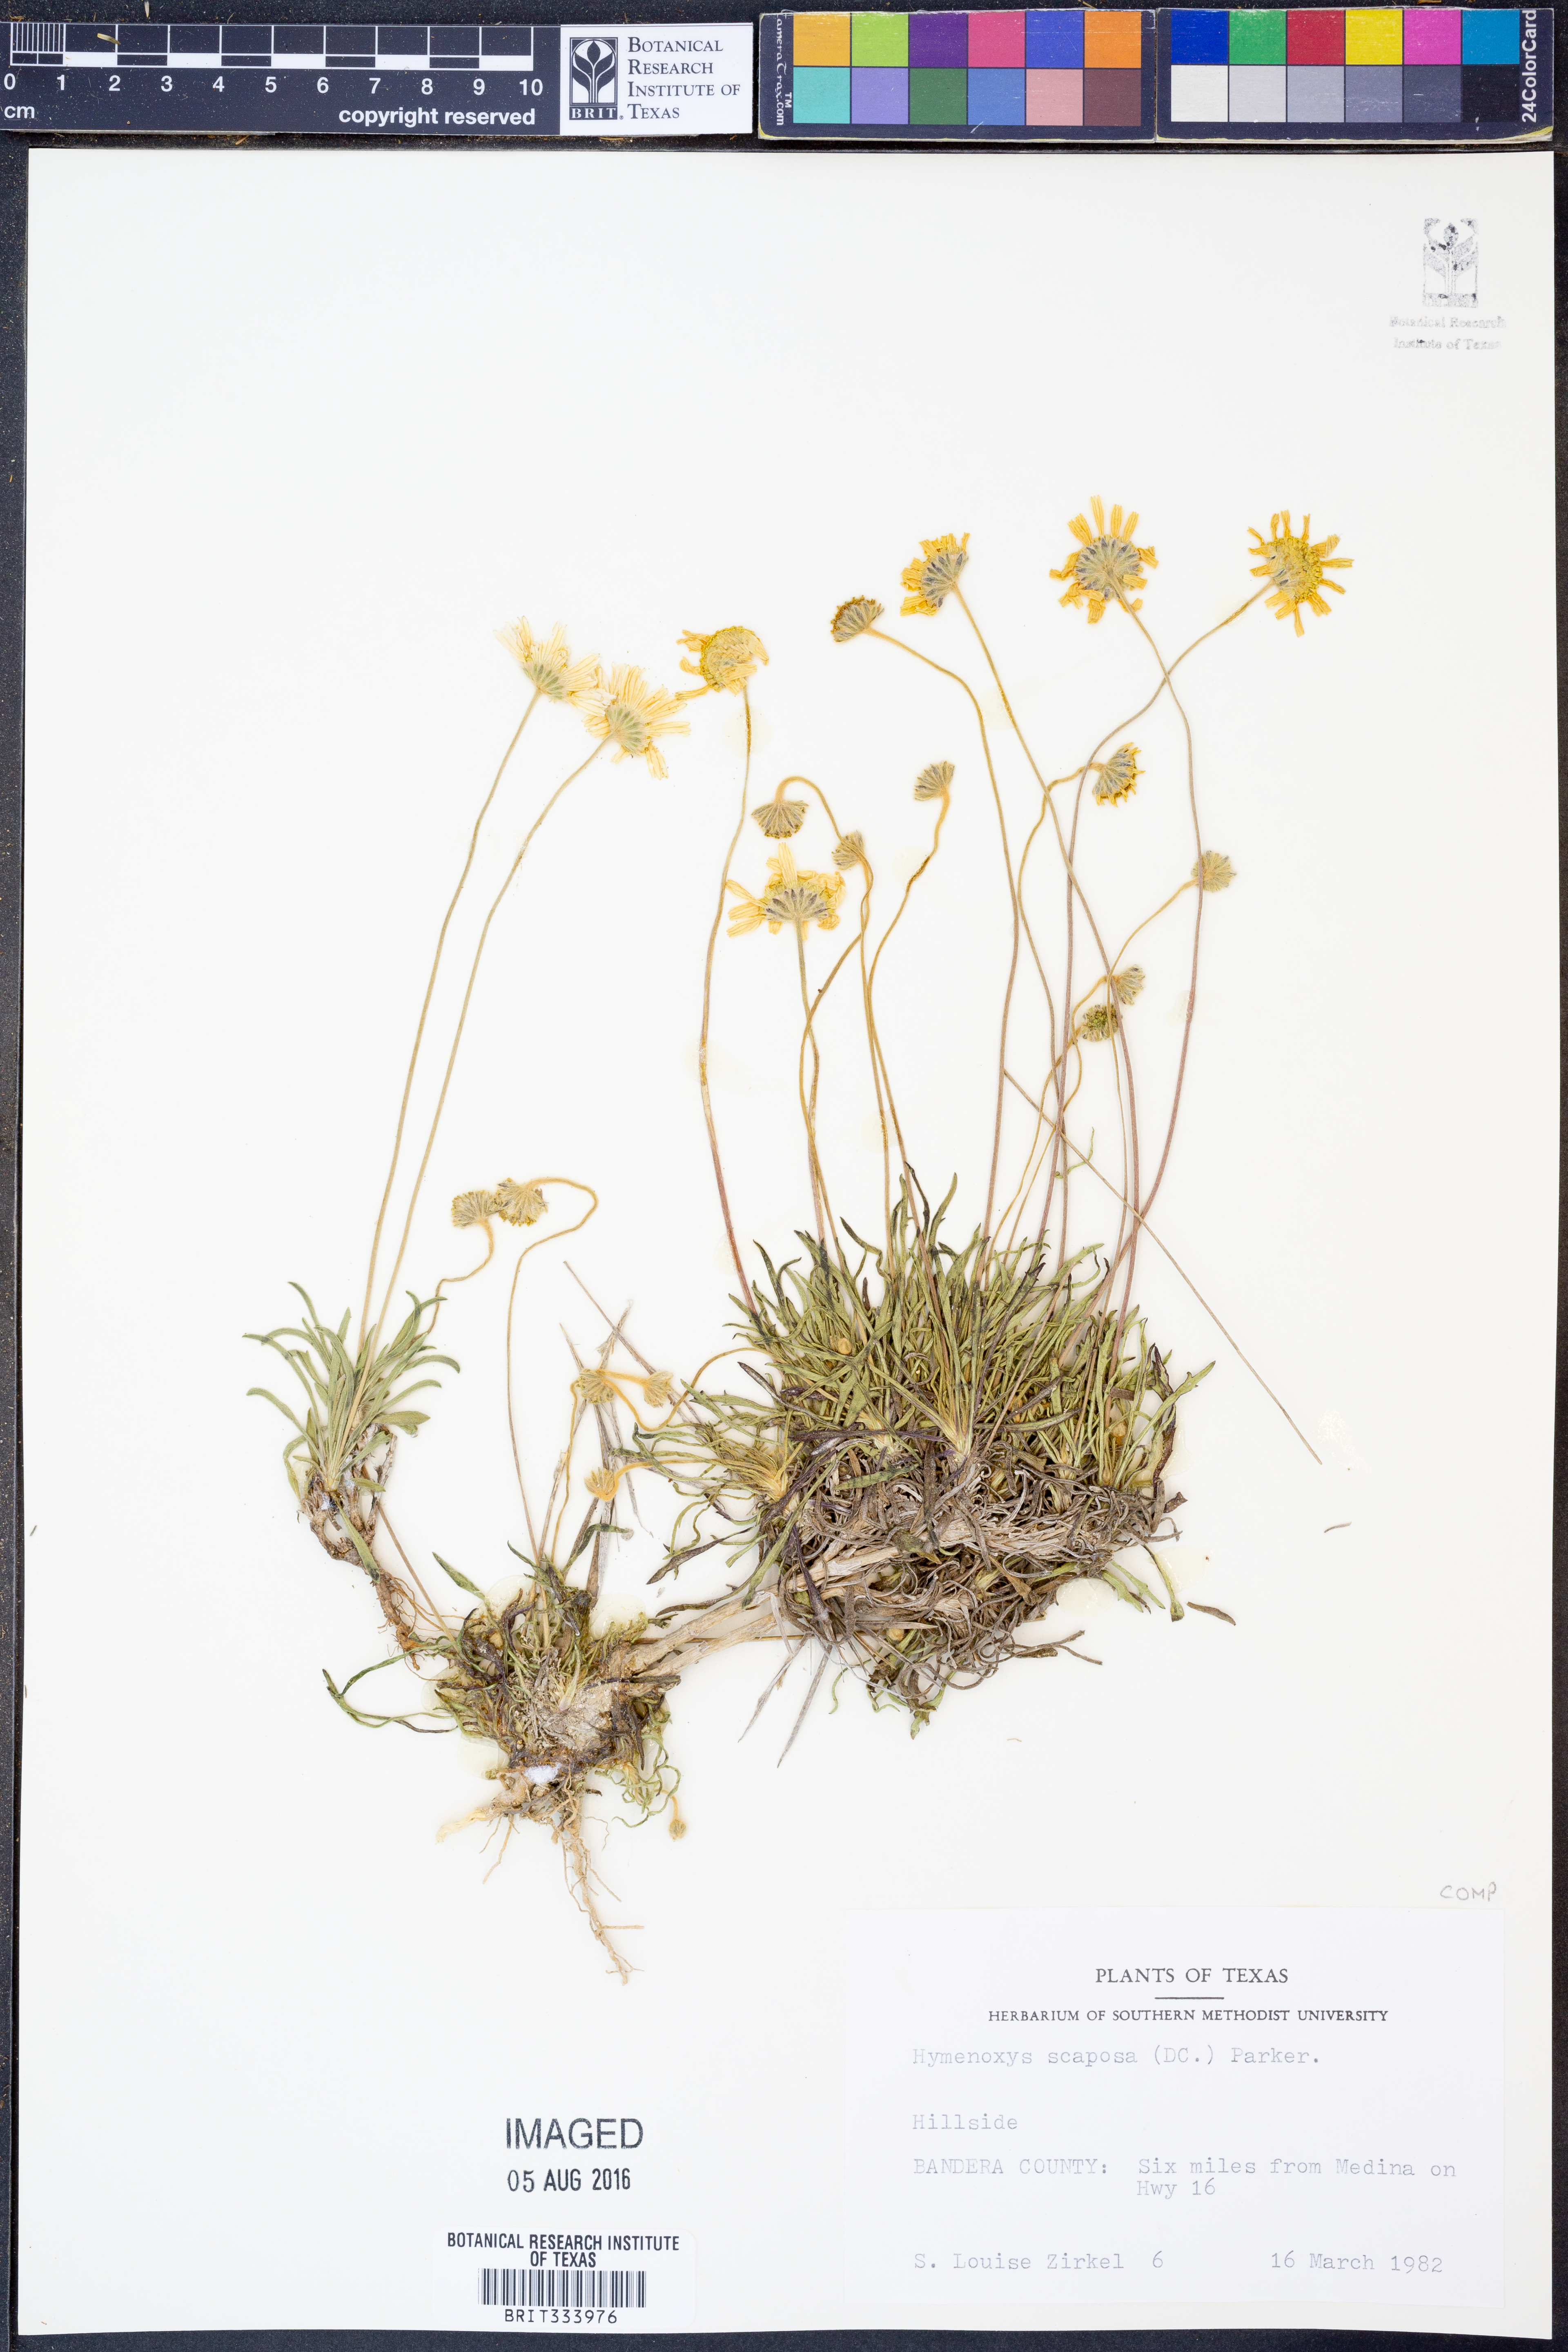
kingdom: Plantae
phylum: Tracheophyta
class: Magnoliopsida
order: Asterales
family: Asteraceae
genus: Tetraneuris
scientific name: Tetraneuris scaposa
